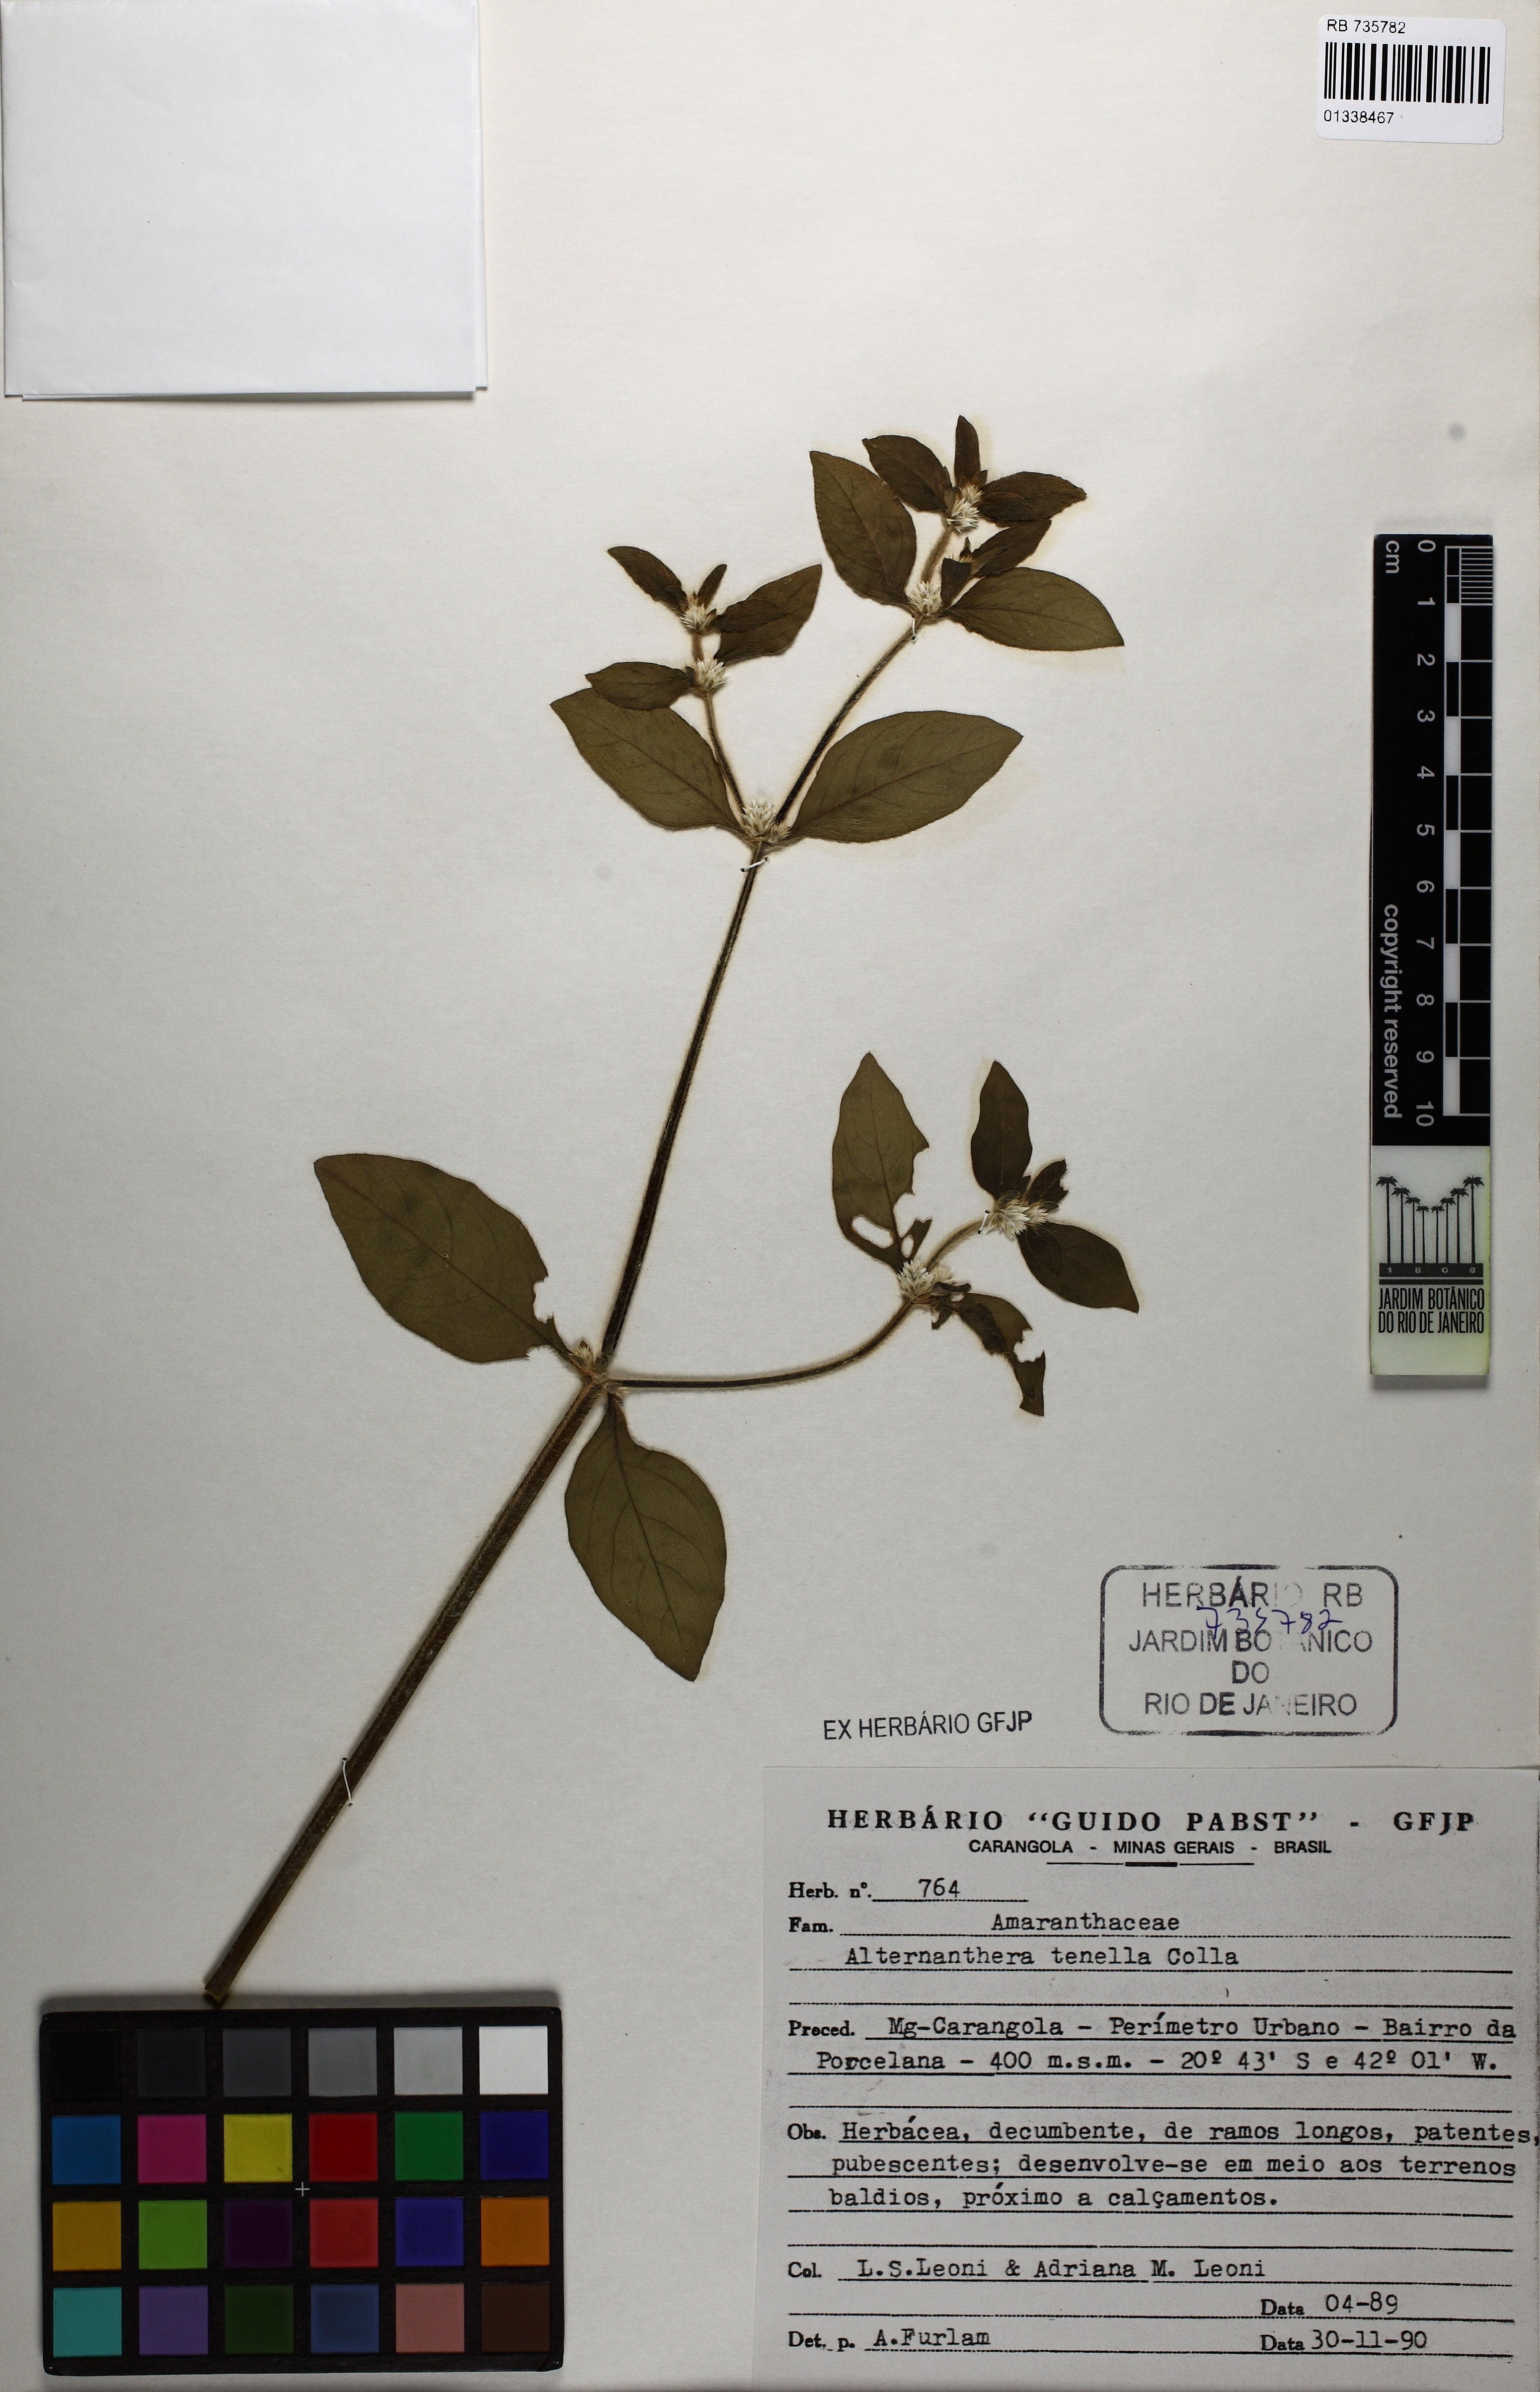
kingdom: Plantae
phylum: Tracheophyta
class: Magnoliopsida
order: Caryophyllales
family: Amaranthaceae
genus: Alternanthera
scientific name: Alternanthera ficoidea
